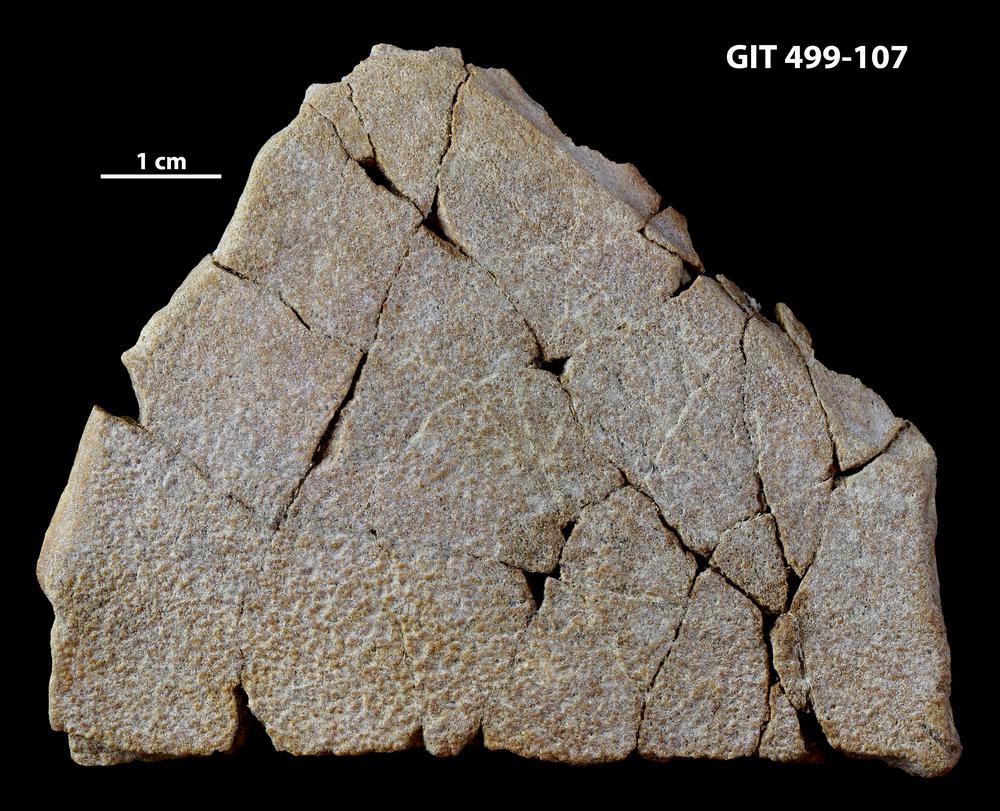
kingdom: Animalia
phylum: Chordata
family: Holoptychiidae
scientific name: Holoptychiidae
